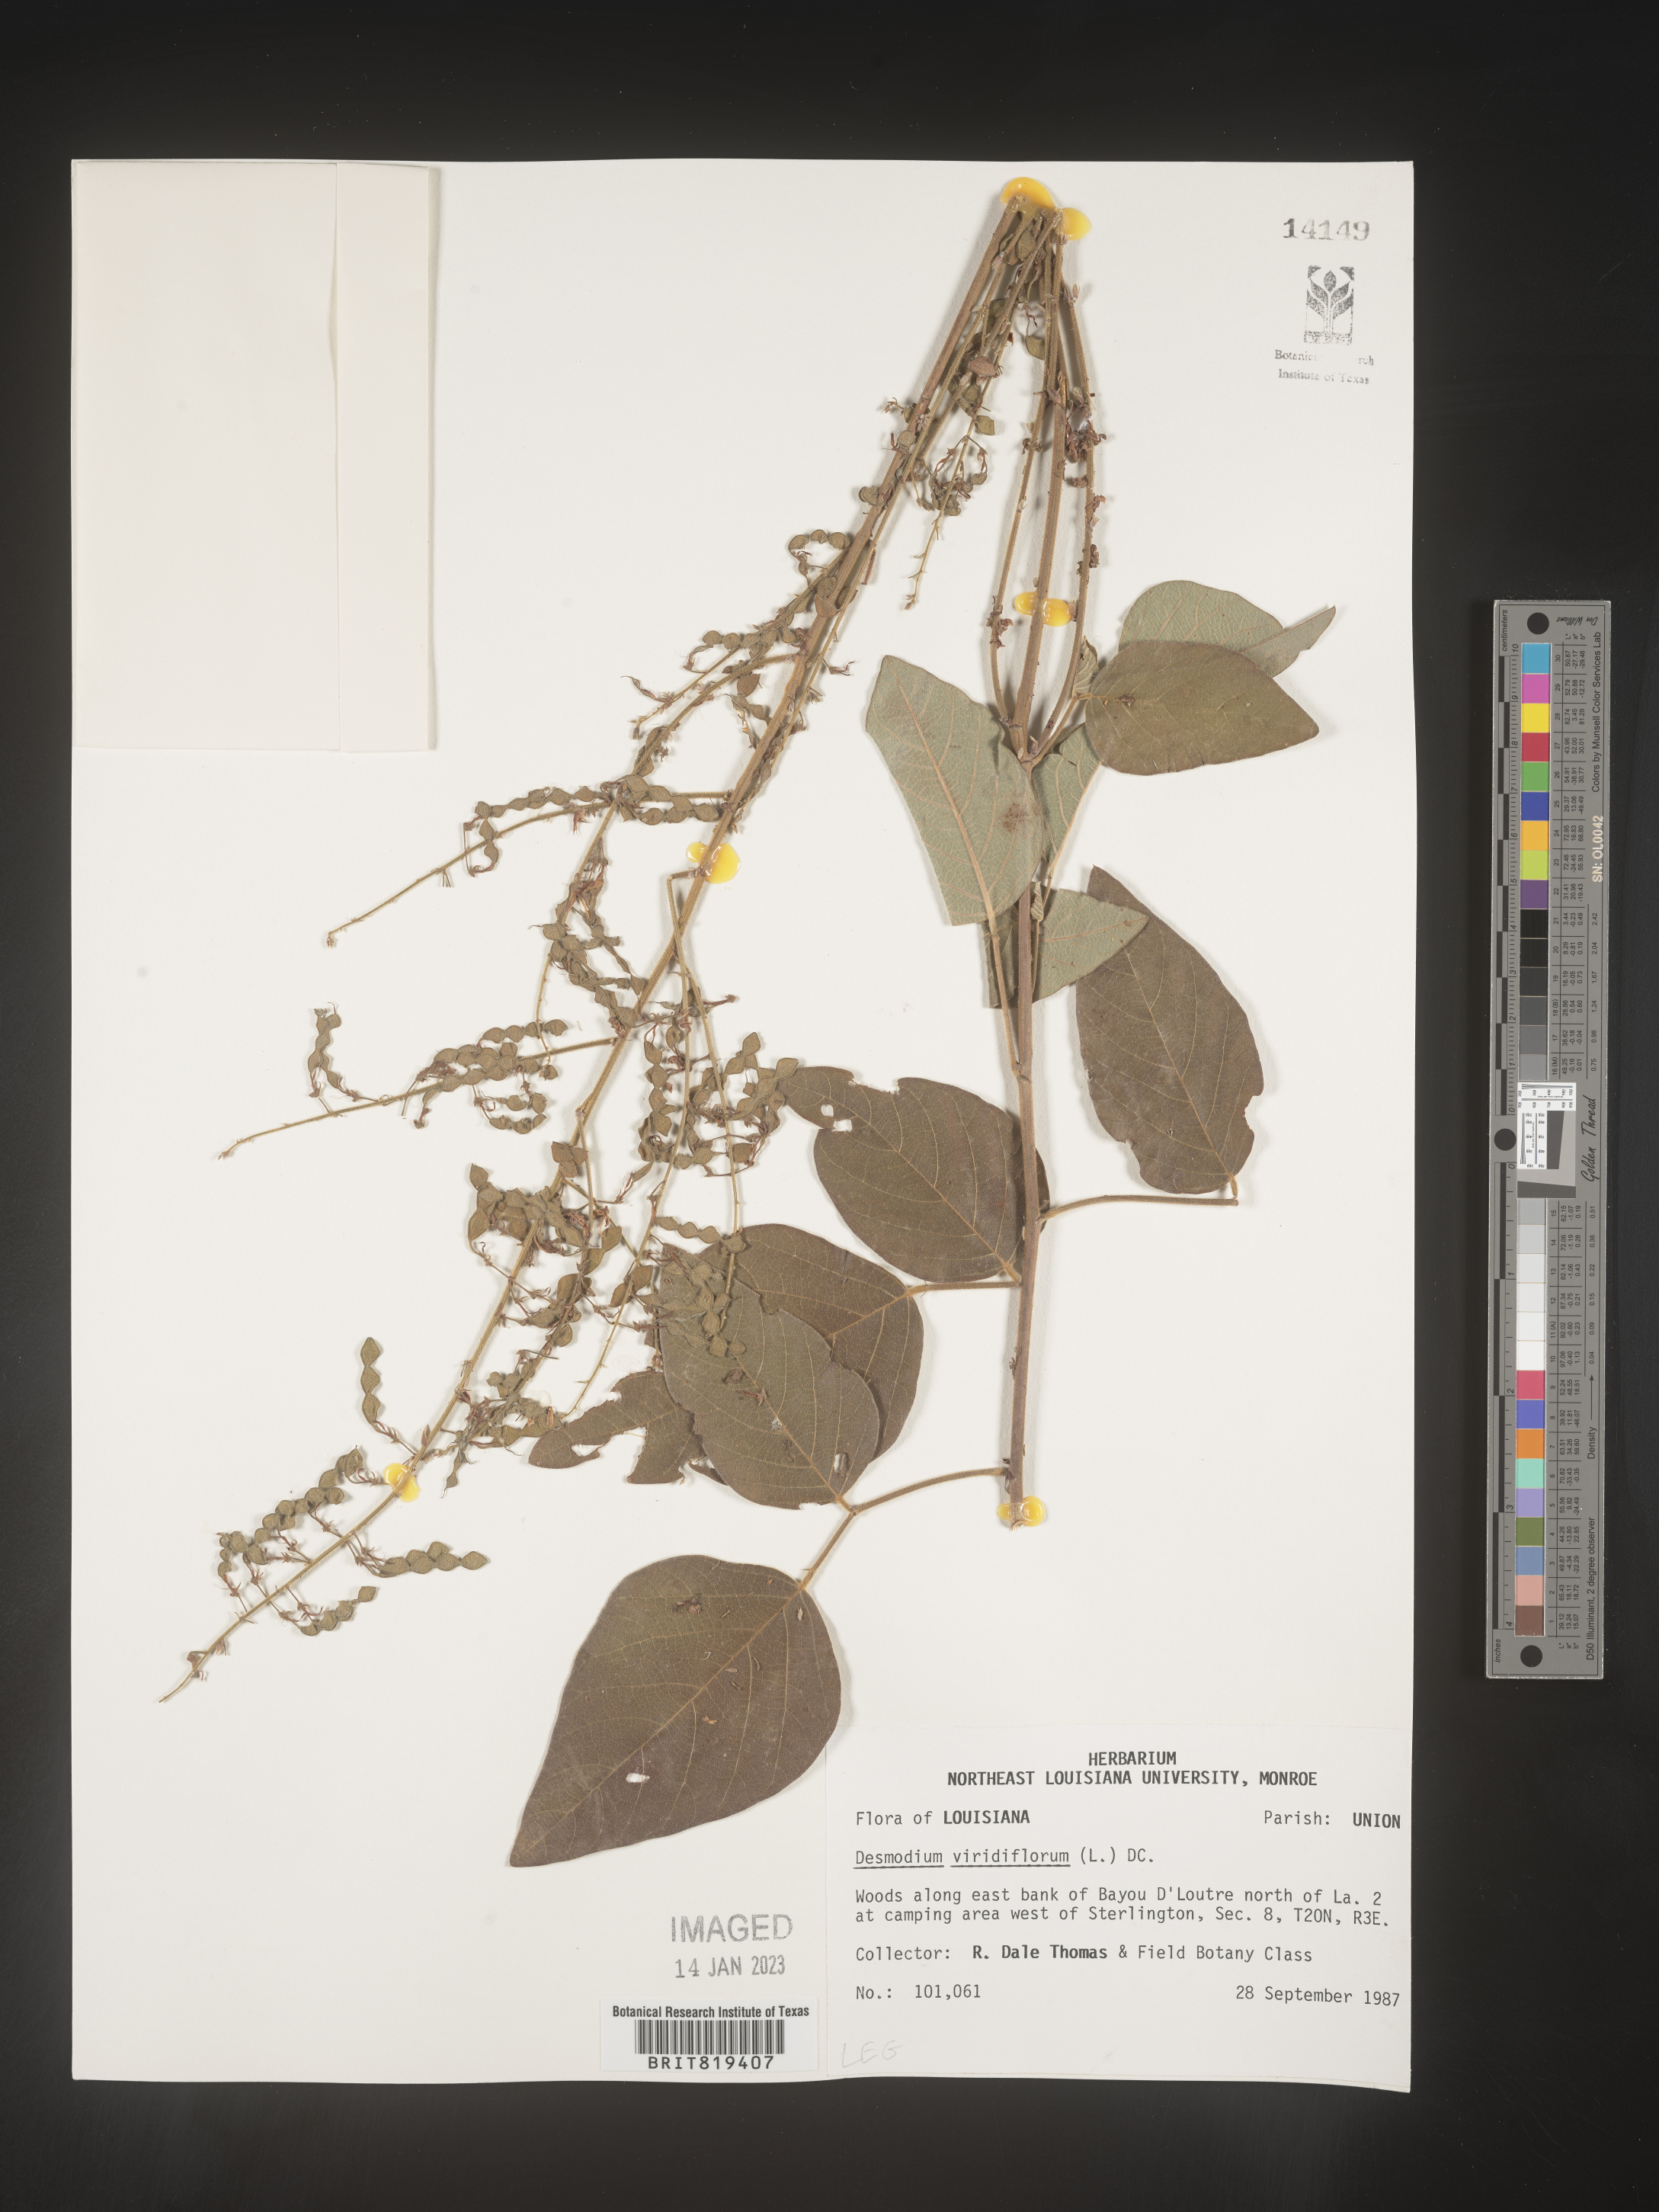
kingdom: Plantae
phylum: Tracheophyta
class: Magnoliopsida
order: Fabales
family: Fabaceae
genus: Desmodium
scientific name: Desmodium viridiflorum
